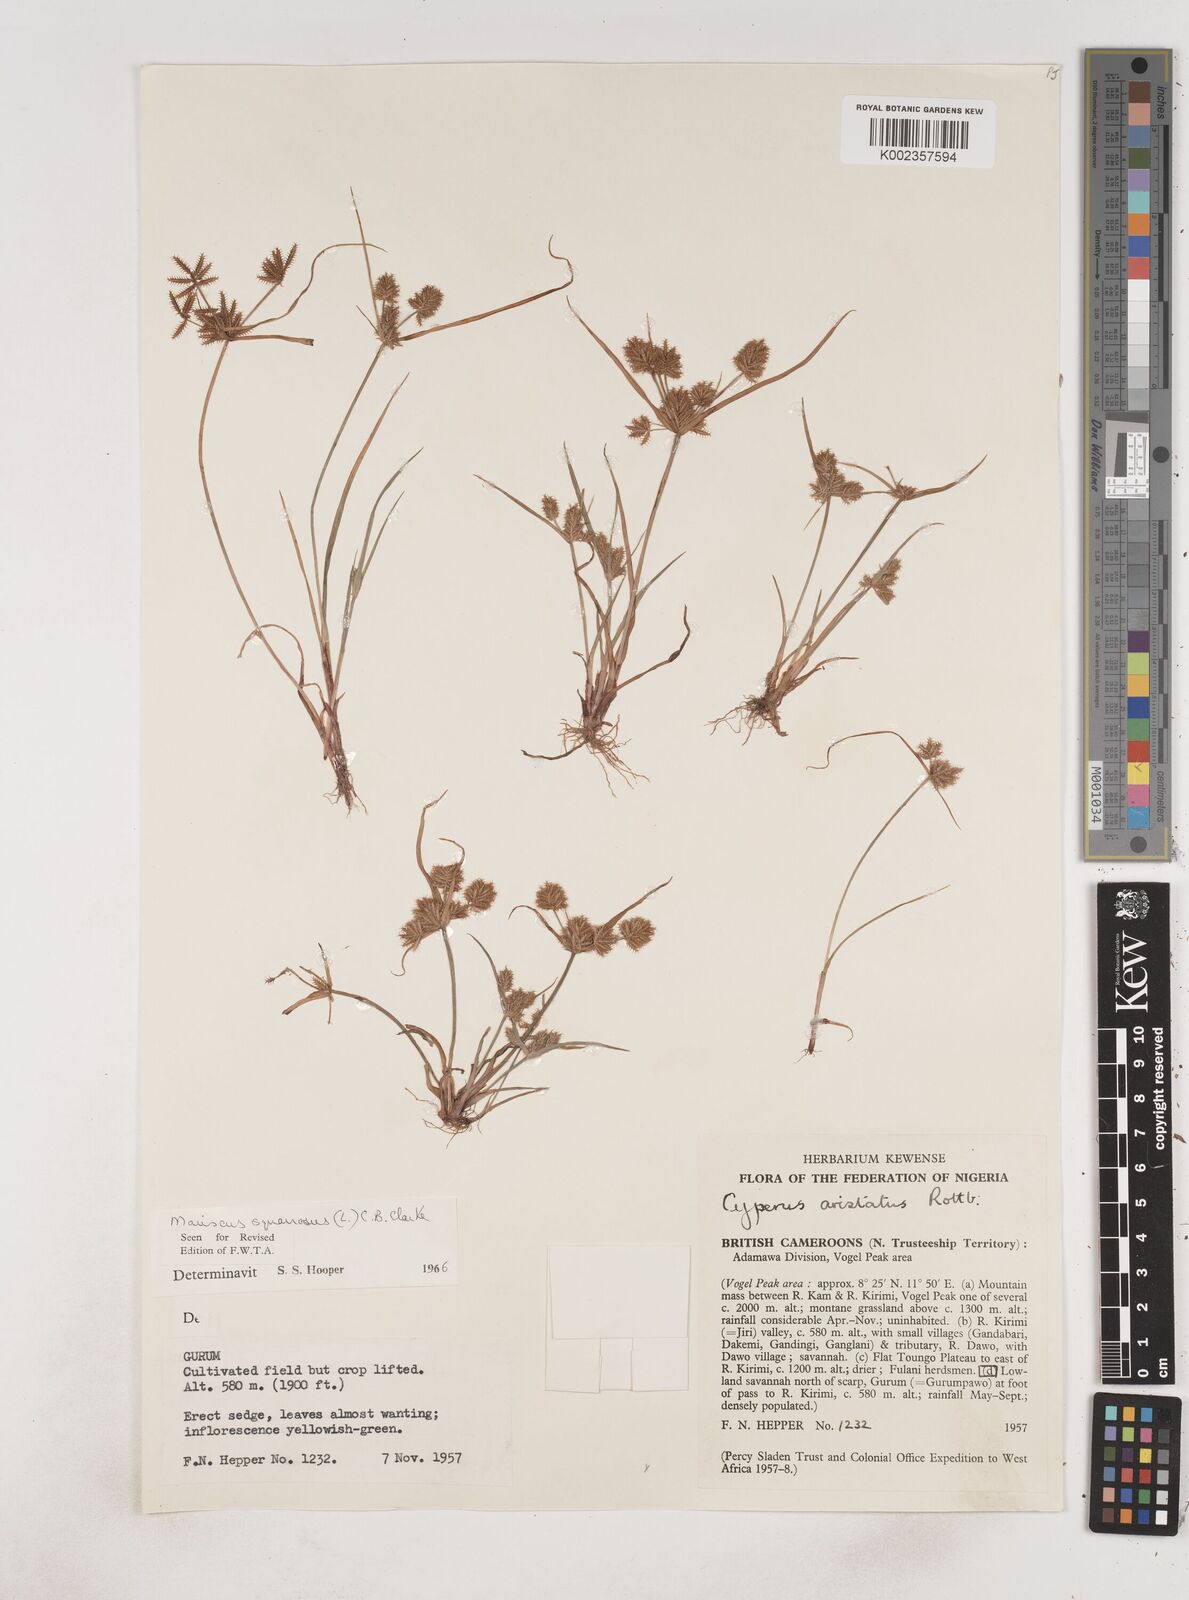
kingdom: Plantae
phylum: Tracheophyta
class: Liliopsida
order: Poales
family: Cyperaceae
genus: Cyperus
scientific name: Cyperus squarrosus
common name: Awned cyperus
